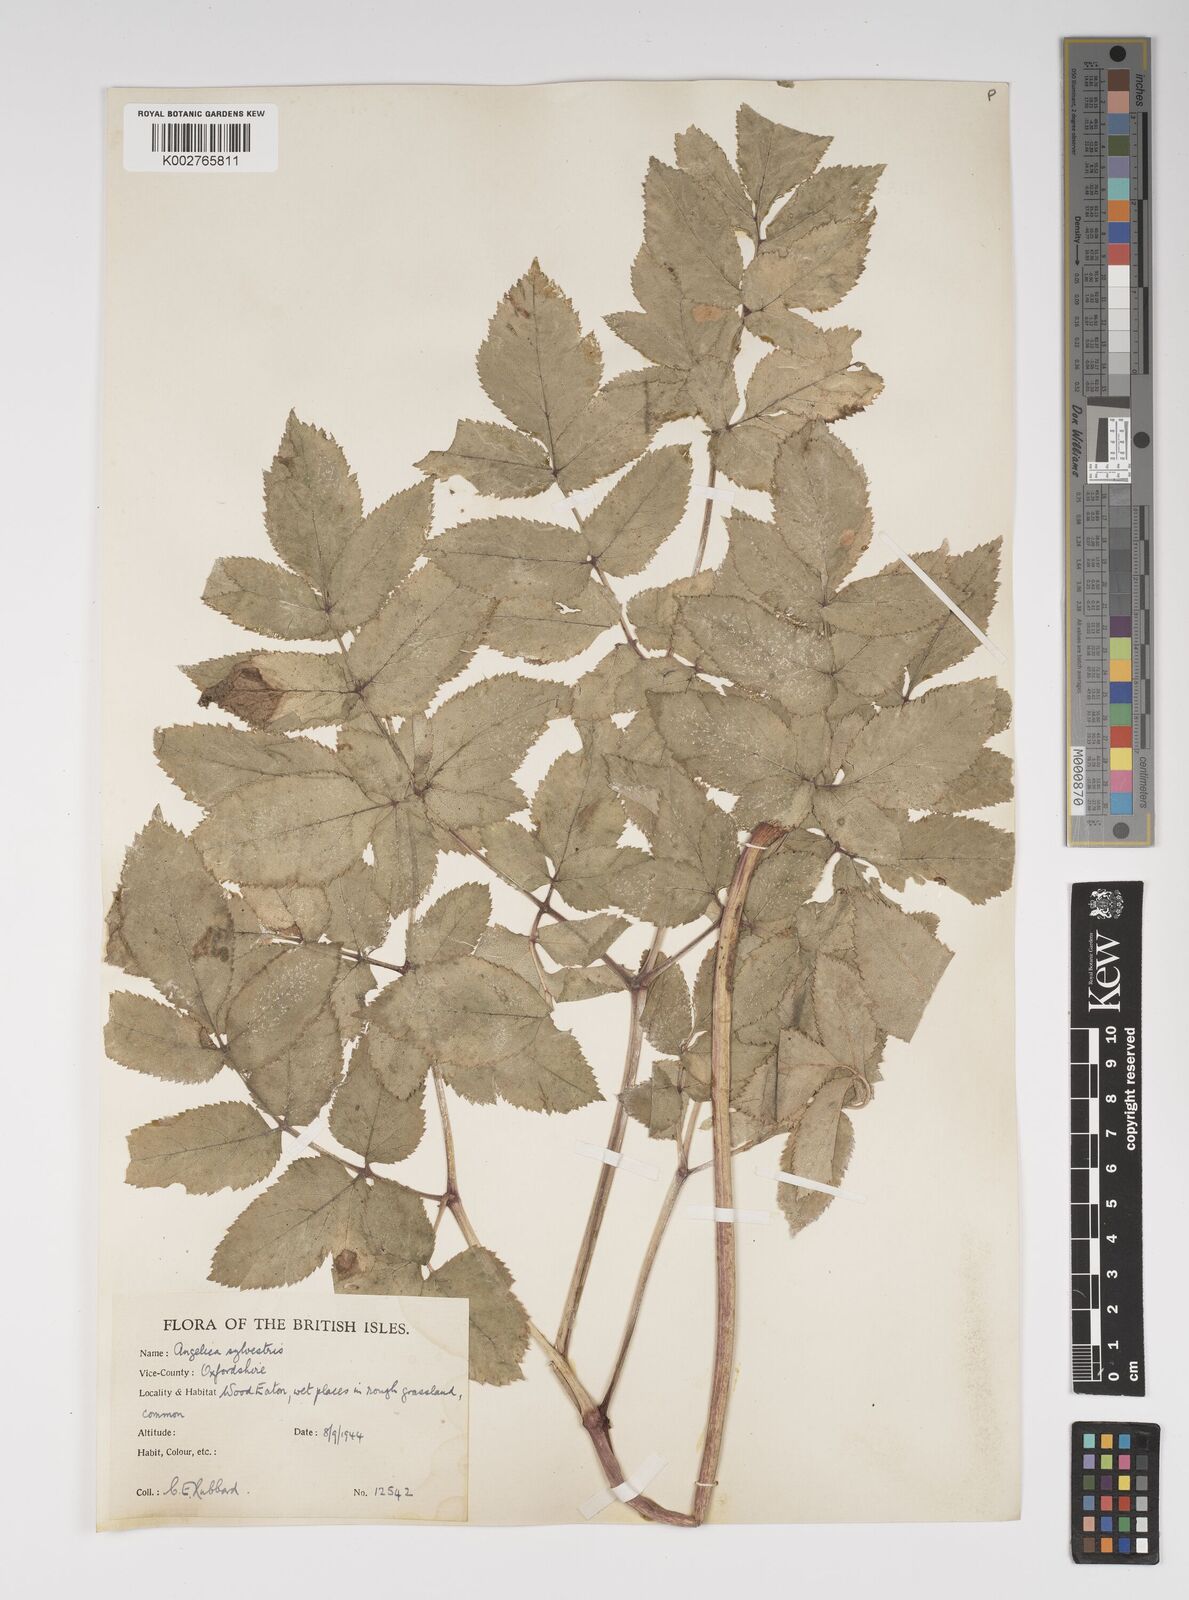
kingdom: Plantae
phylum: Tracheophyta
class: Magnoliopsida
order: Apiales
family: Apiaceae
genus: Angelica
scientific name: Angelica sylvestris
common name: Wild angelica
